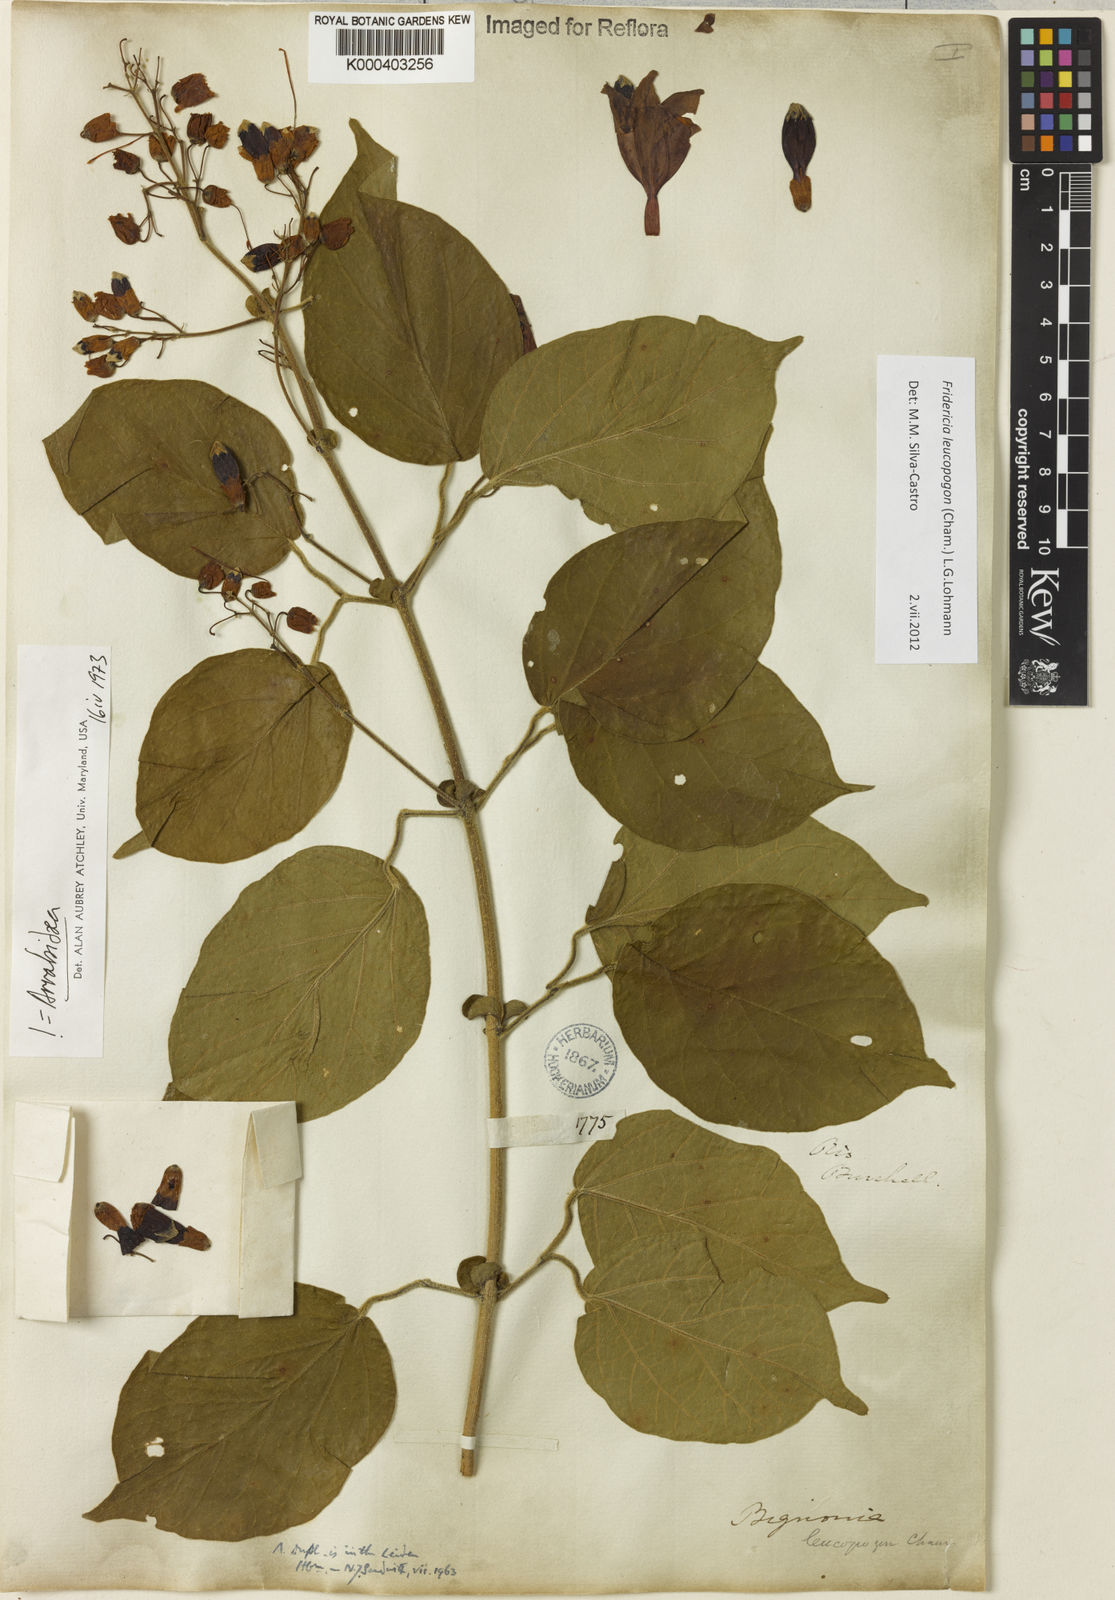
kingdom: Plantae
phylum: Tracheophyta
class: Magnoliopsida
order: Lamiales
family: Bignoniaceae
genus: Fridericia
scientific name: Fridericia leucopogon
